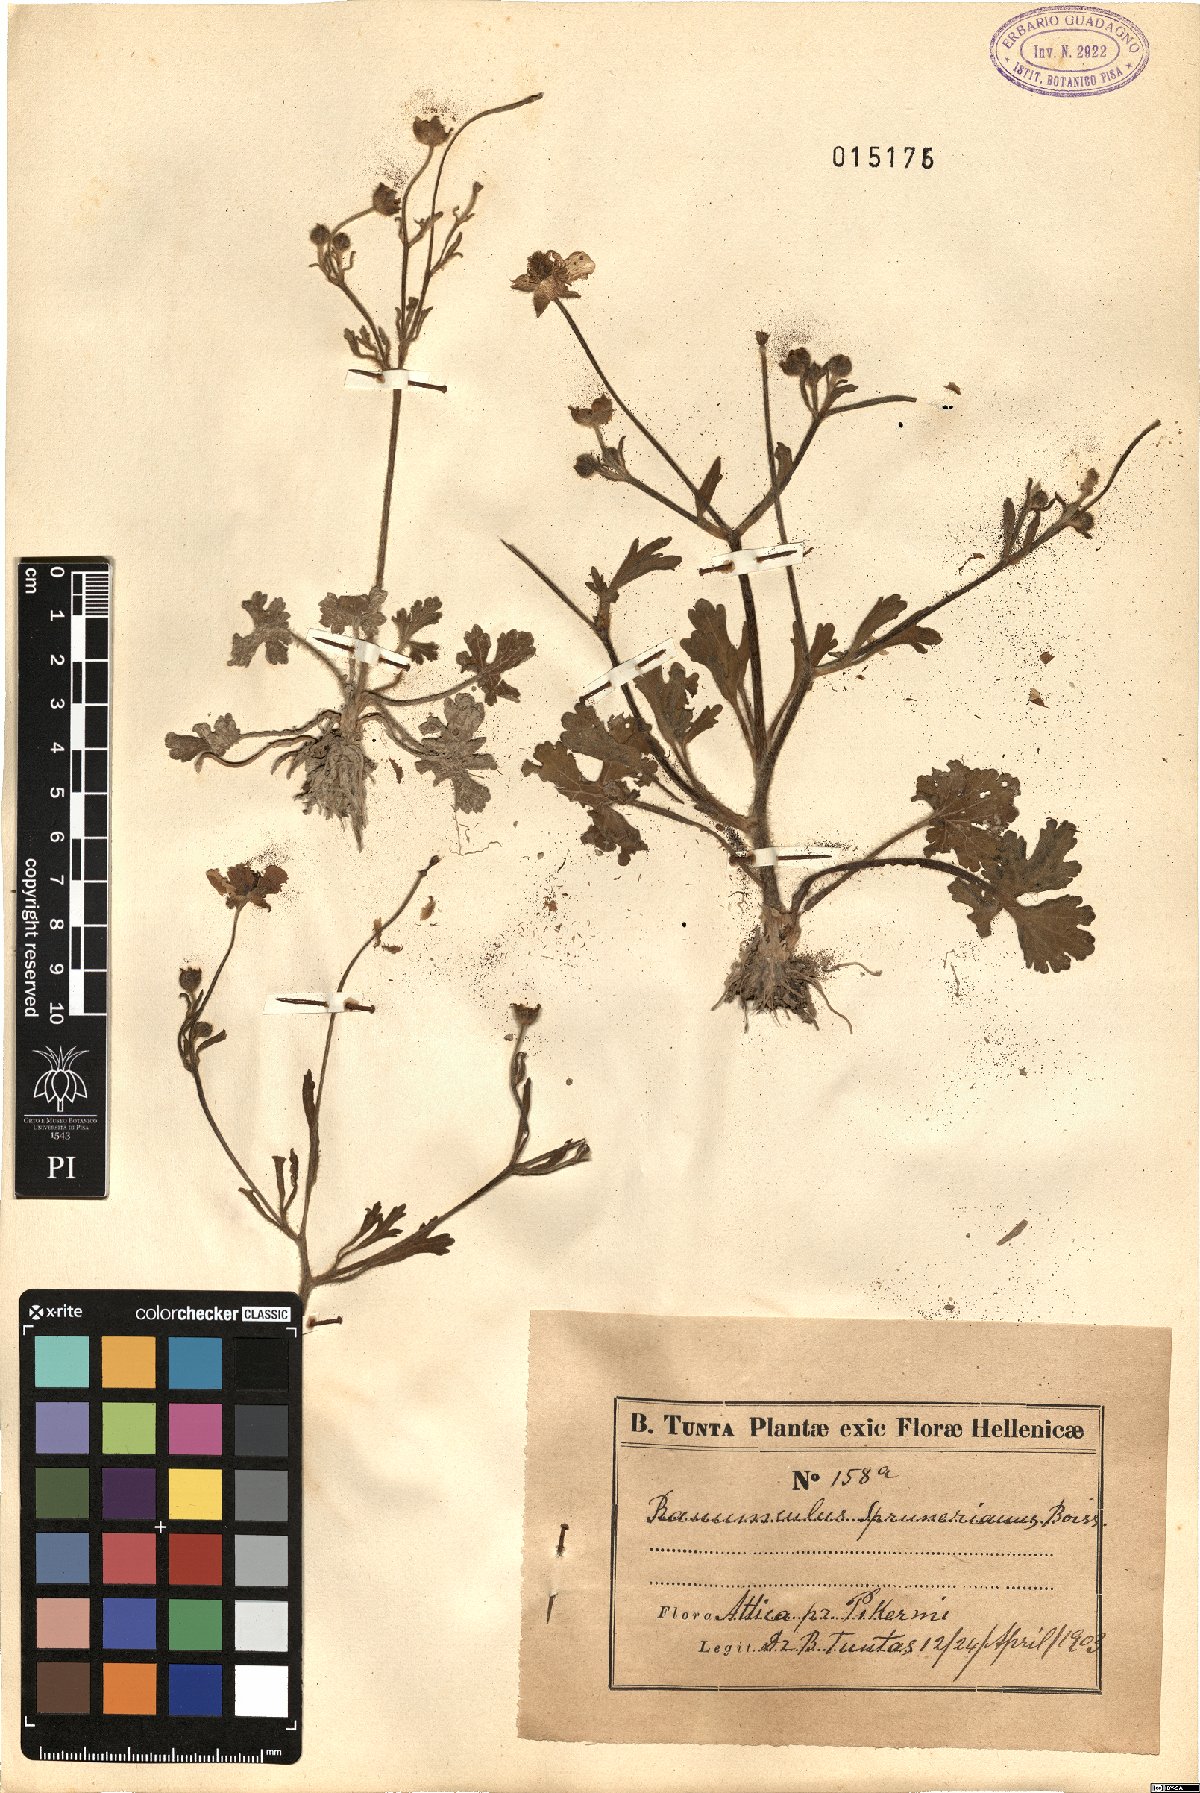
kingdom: Plantae
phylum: Tracheophyta
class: Magnoliopsida
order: Ranunculales
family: Ranunculaceae
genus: Ranunculus
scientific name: Ranunculus sprunerianus
